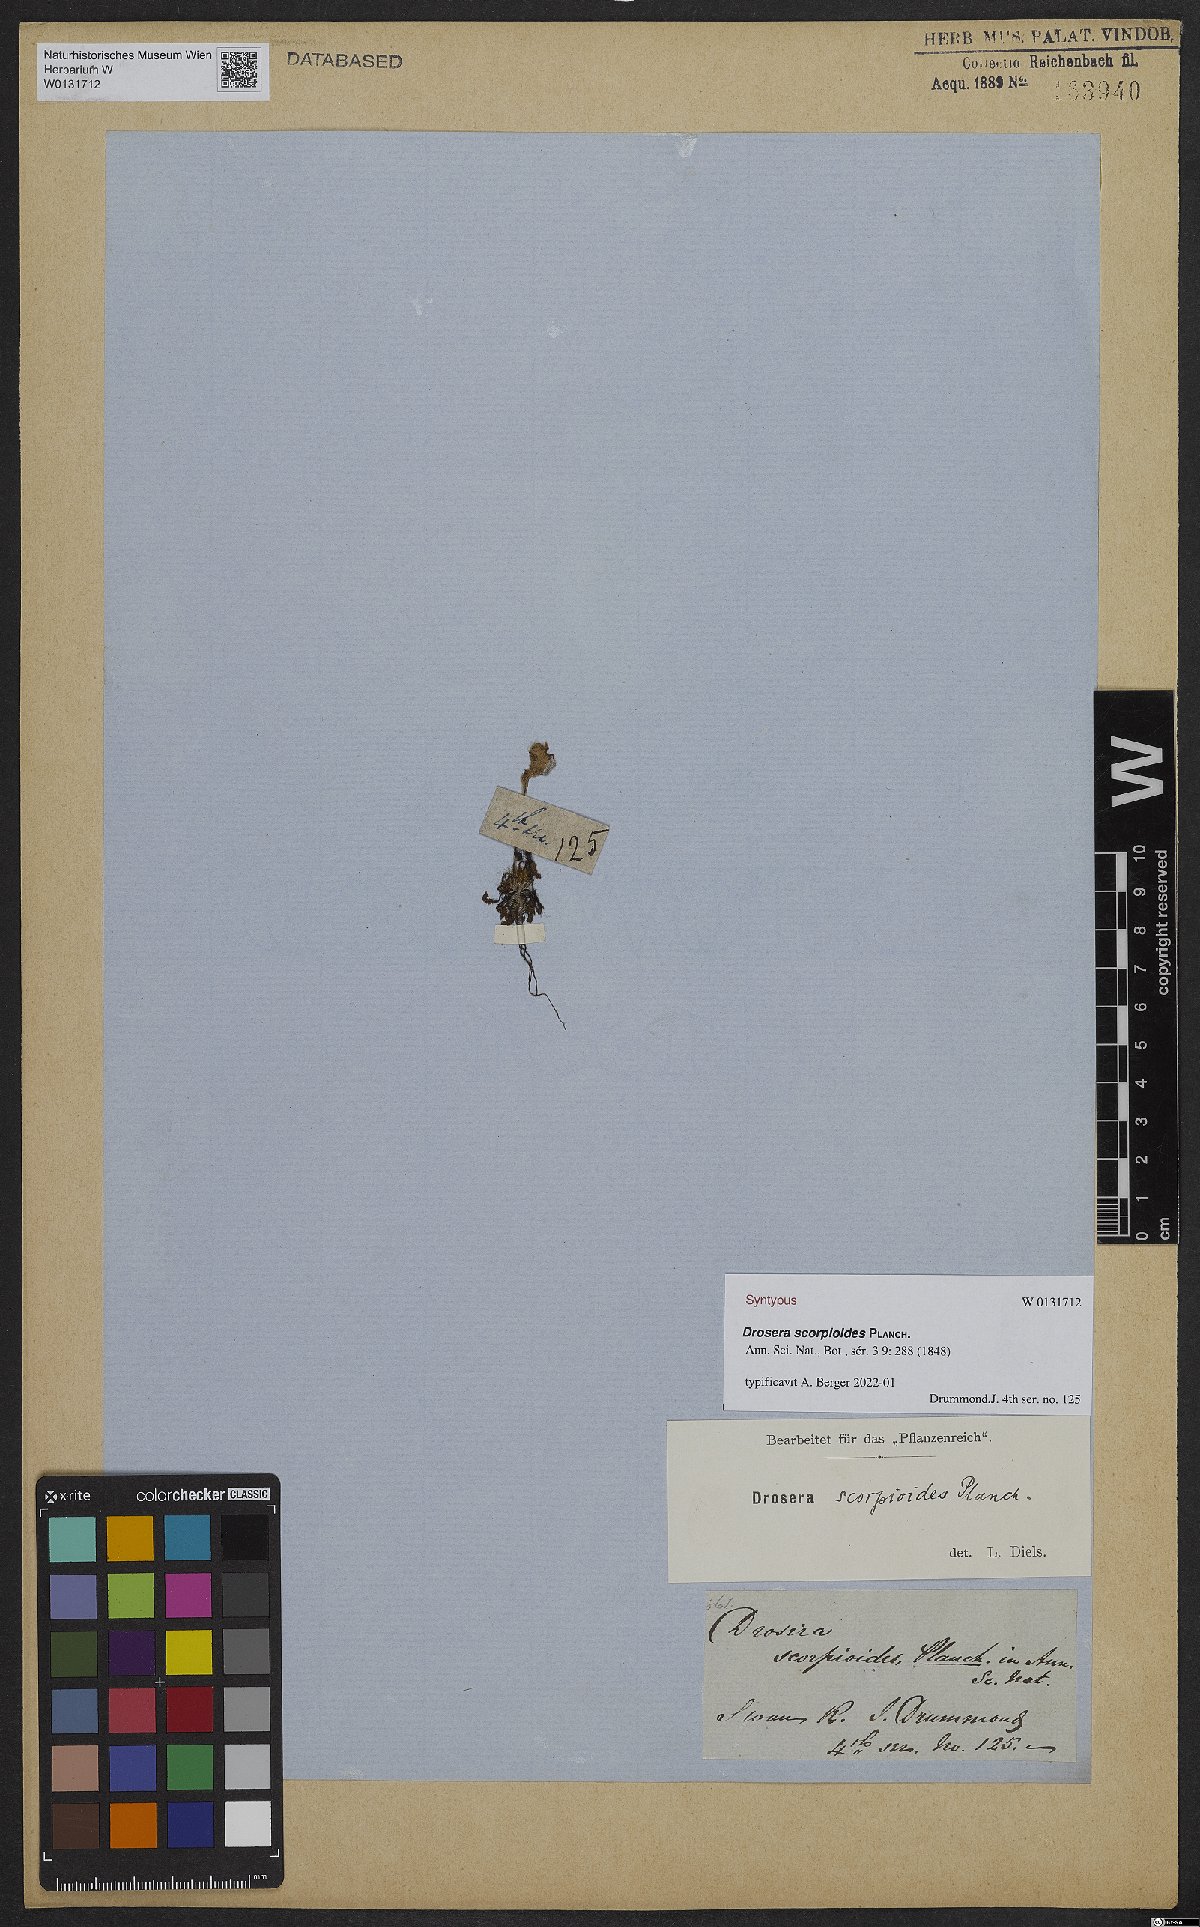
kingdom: Plantae
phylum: Tracheophyta
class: Magnoliopsida
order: Caryophyllales
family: Droseraceae
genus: Drosera
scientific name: Drosera scorpioides
